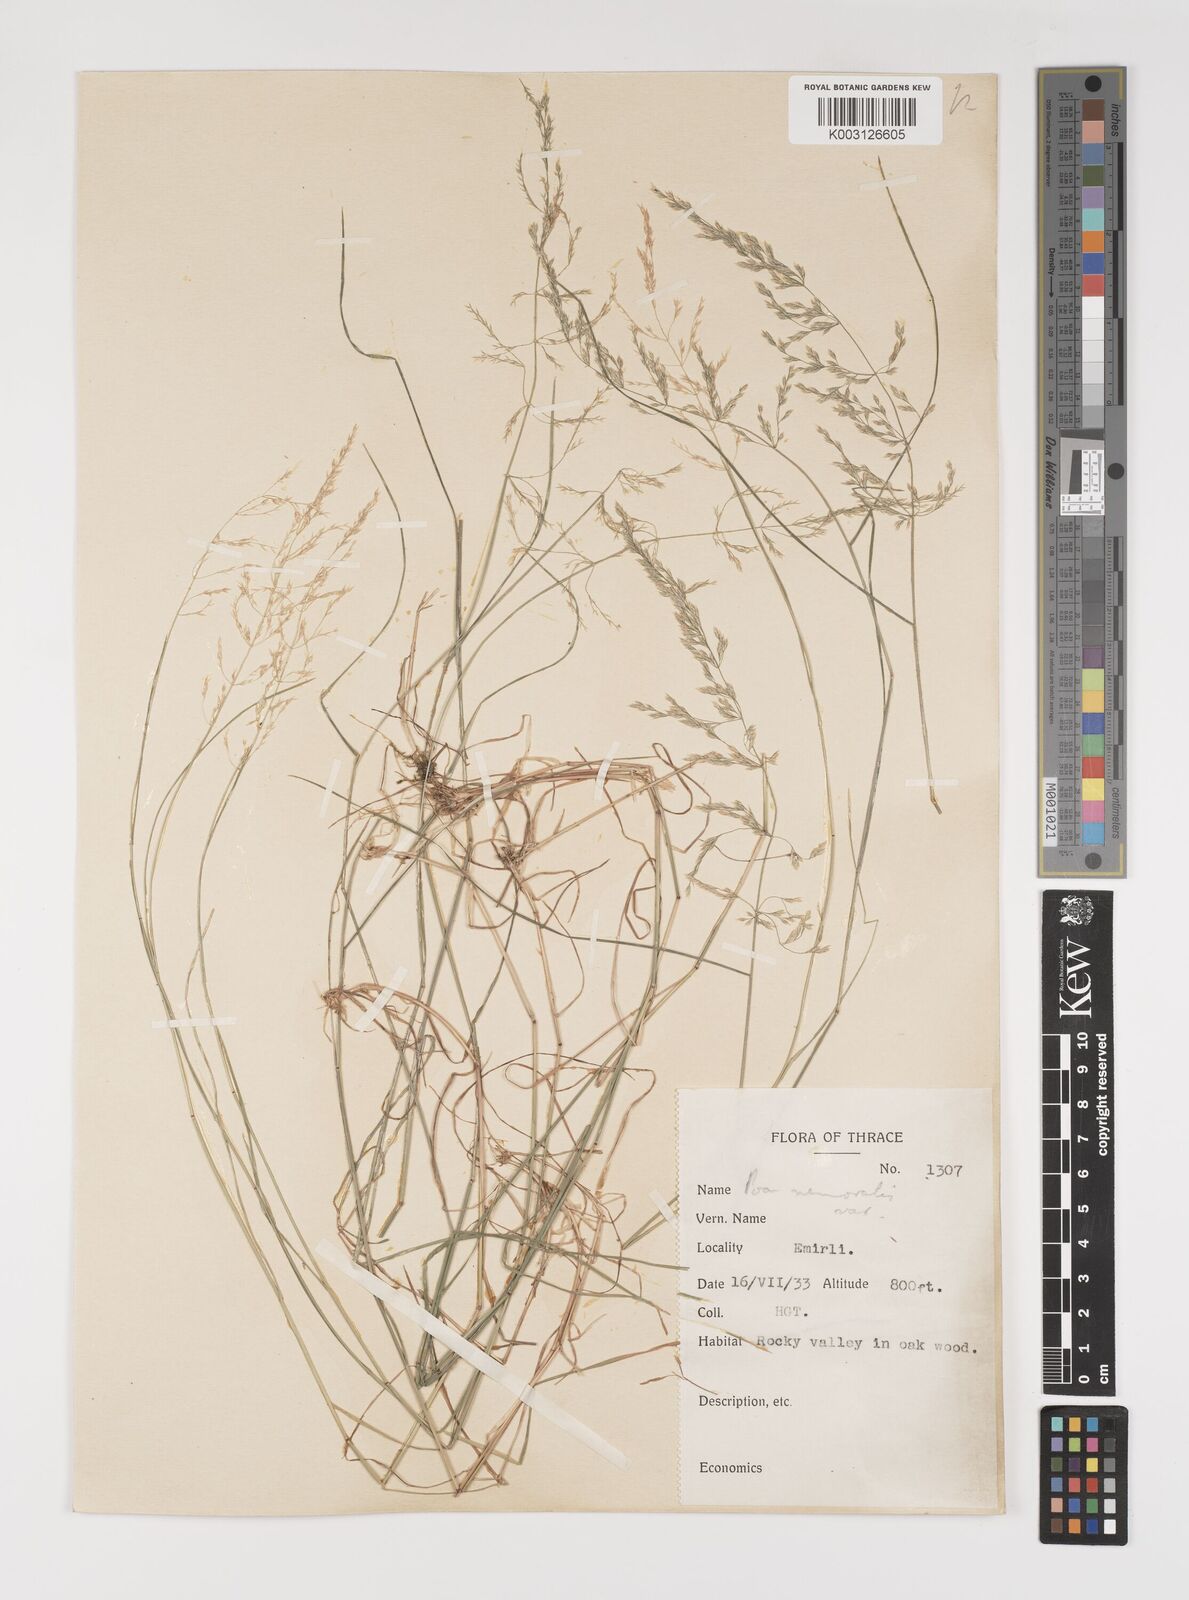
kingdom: Plantae
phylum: Tracheophyta
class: Liliopsida
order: Poales
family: Poaceae
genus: Poa
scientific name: Poa nemoralis
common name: Wood bluegrass
